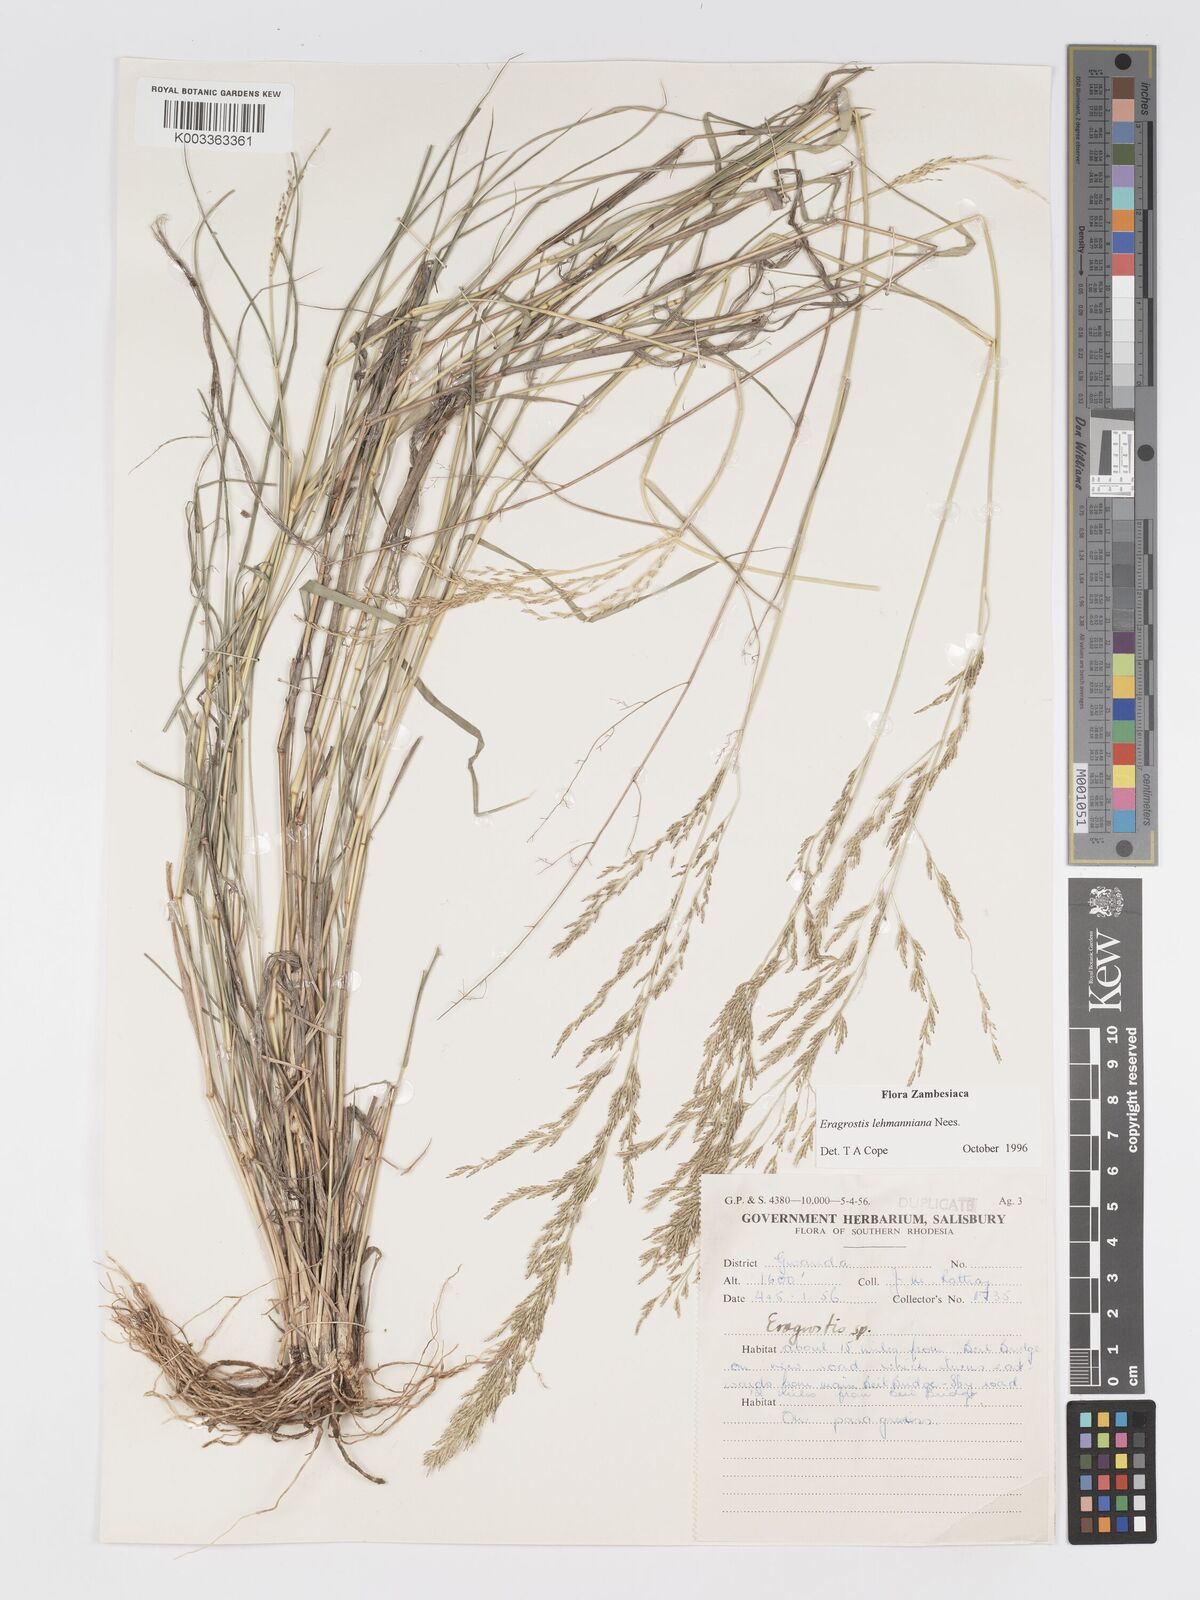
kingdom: Plantae
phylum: Tracheophyta
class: Liliopsida
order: Poales
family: Poaceae
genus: Eragrostis
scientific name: Eragrostis lehmanniana
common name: Lehmann lovegrass
